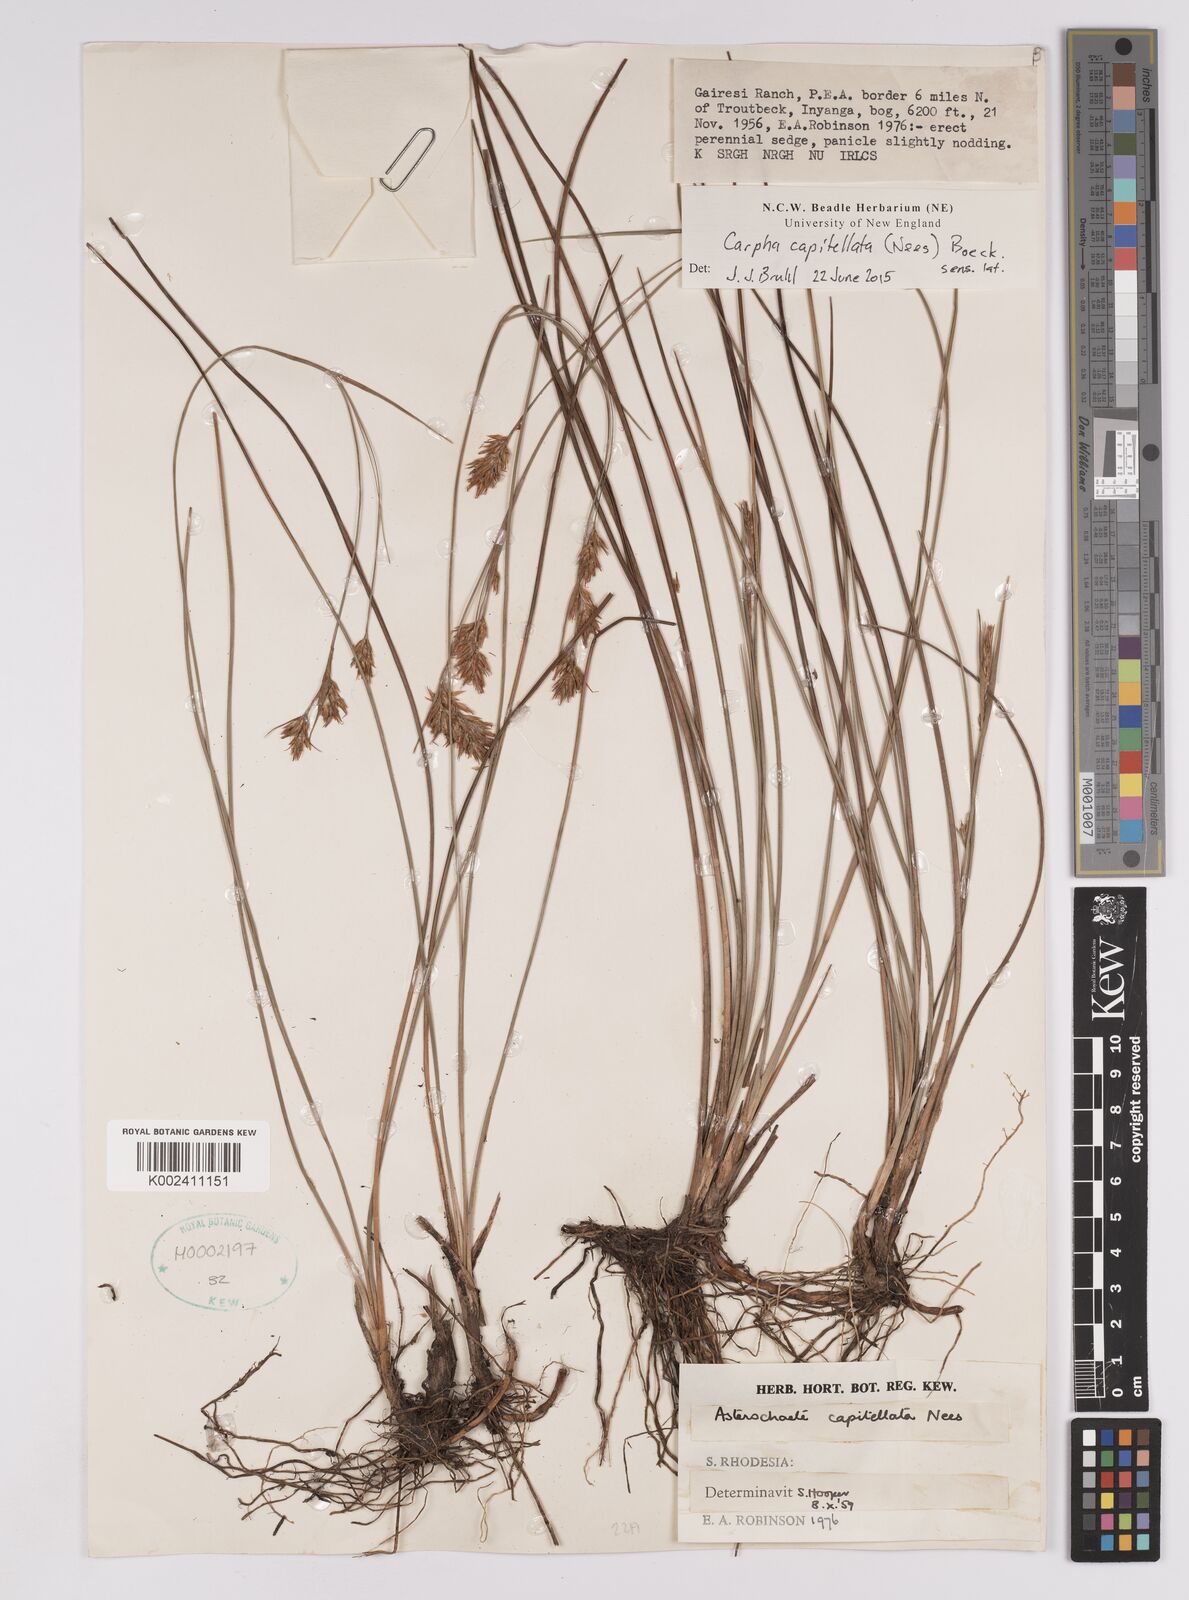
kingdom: Plantae
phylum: Tracheophyta
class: Liliopsida
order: Poales
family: Cyperaceae
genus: Carpha
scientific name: Carpha capitellata
